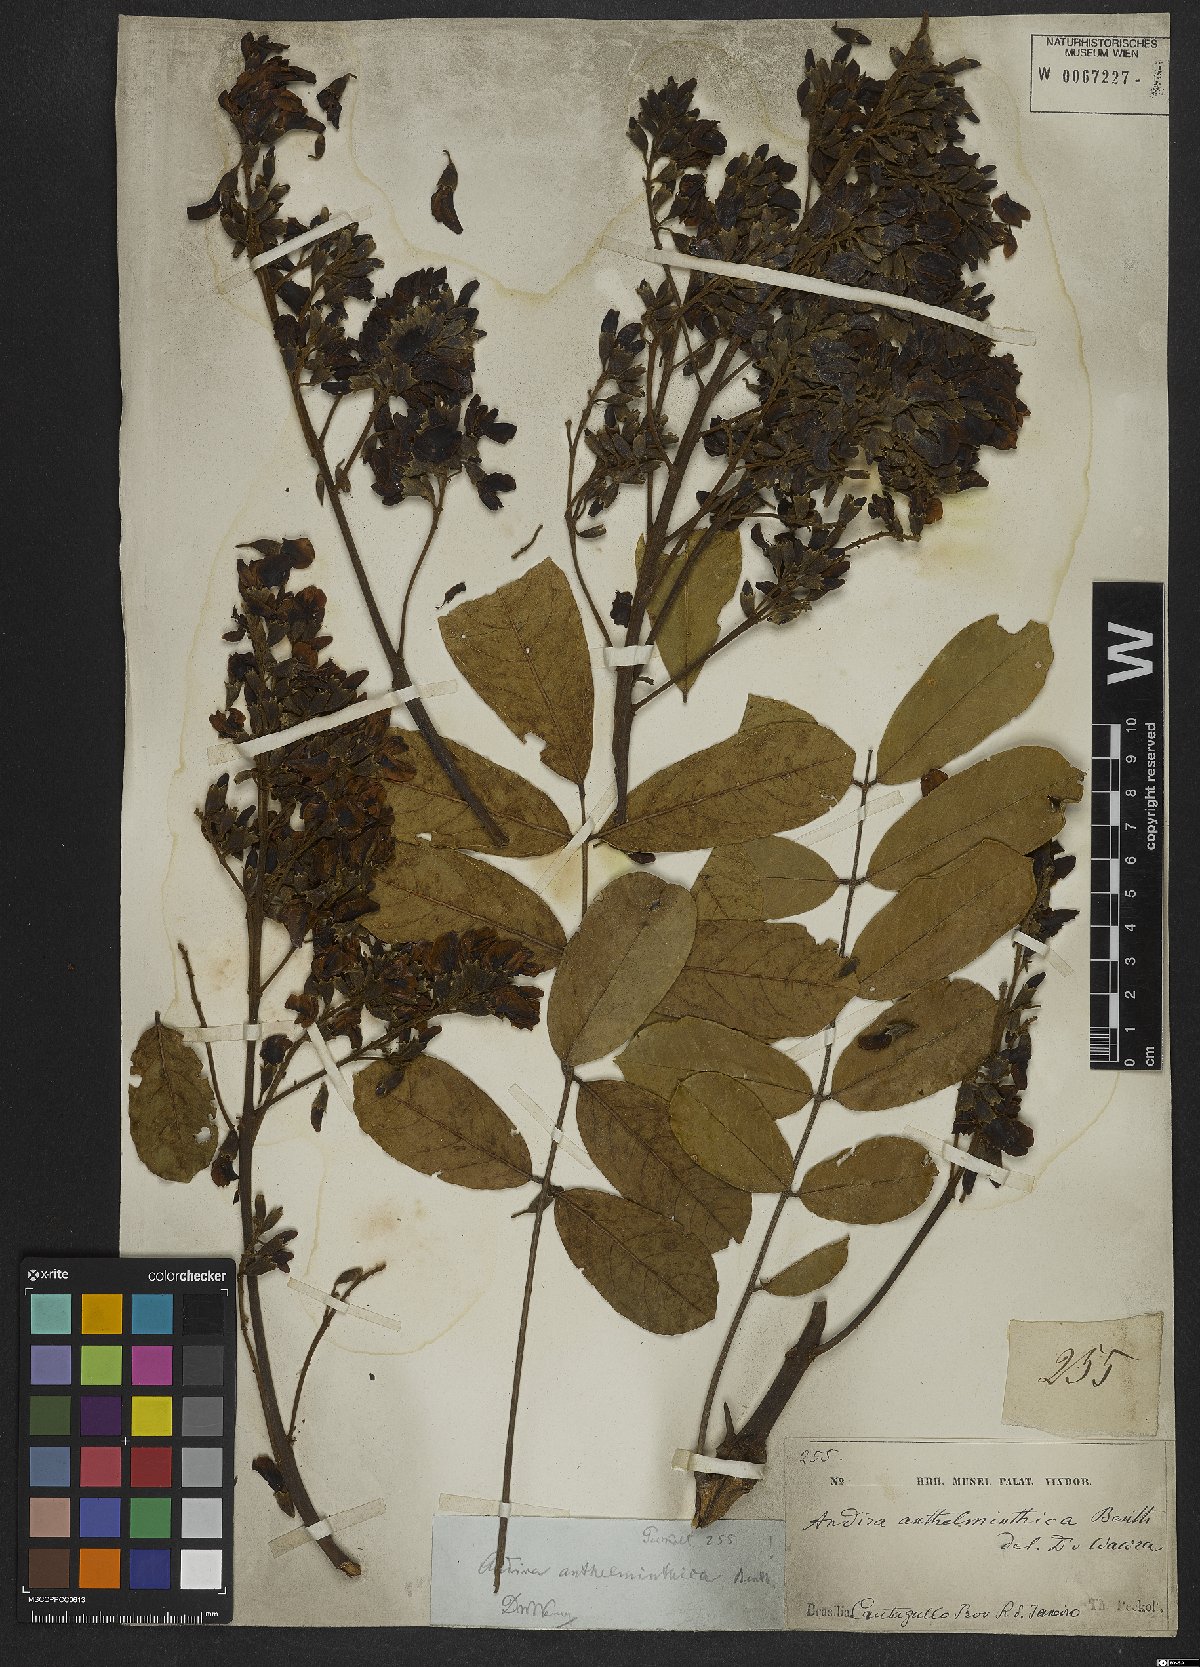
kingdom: Plantae
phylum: Tracheophyta
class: Magnoliopsida
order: Fabales
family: Fabaceae
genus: Andira
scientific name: Andira anthelmia
